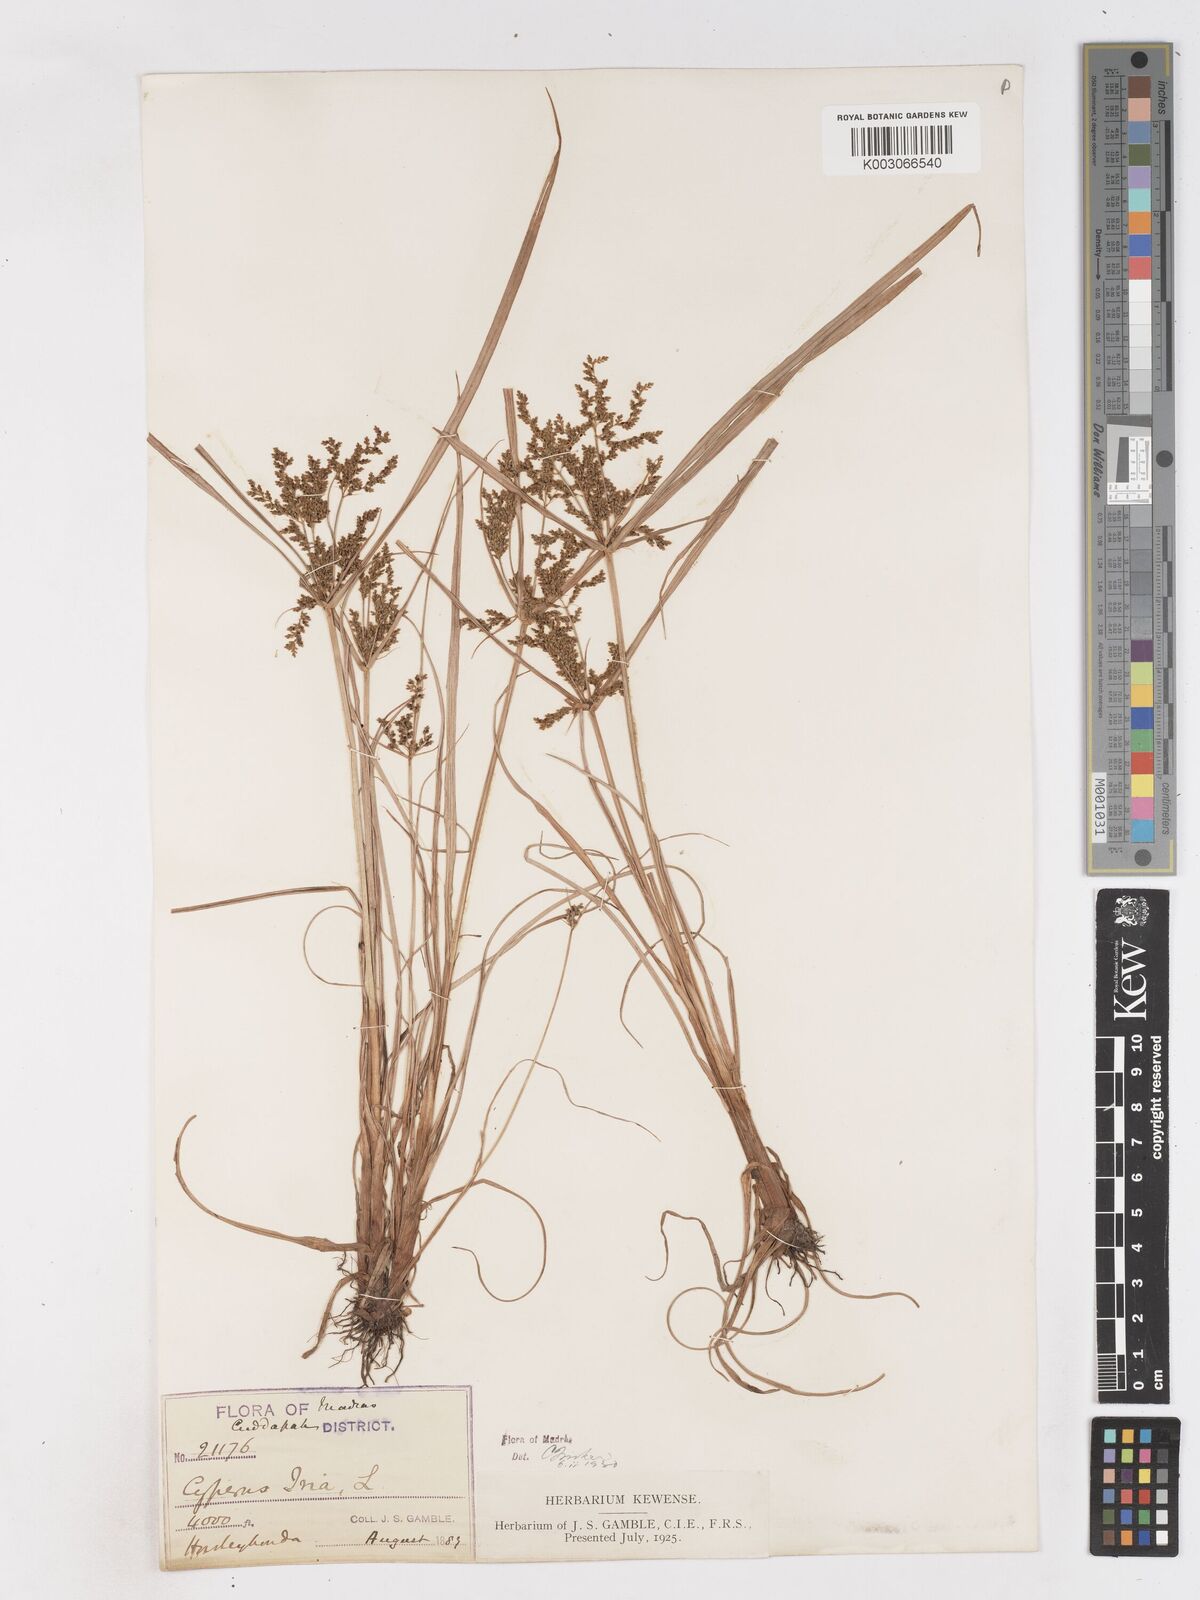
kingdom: Plantae
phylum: Tracheophyta
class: Liliopsida
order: Poales
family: Cyperaceae
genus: Cyperus
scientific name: Cyperus iria
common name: Ricefield flatsedge
